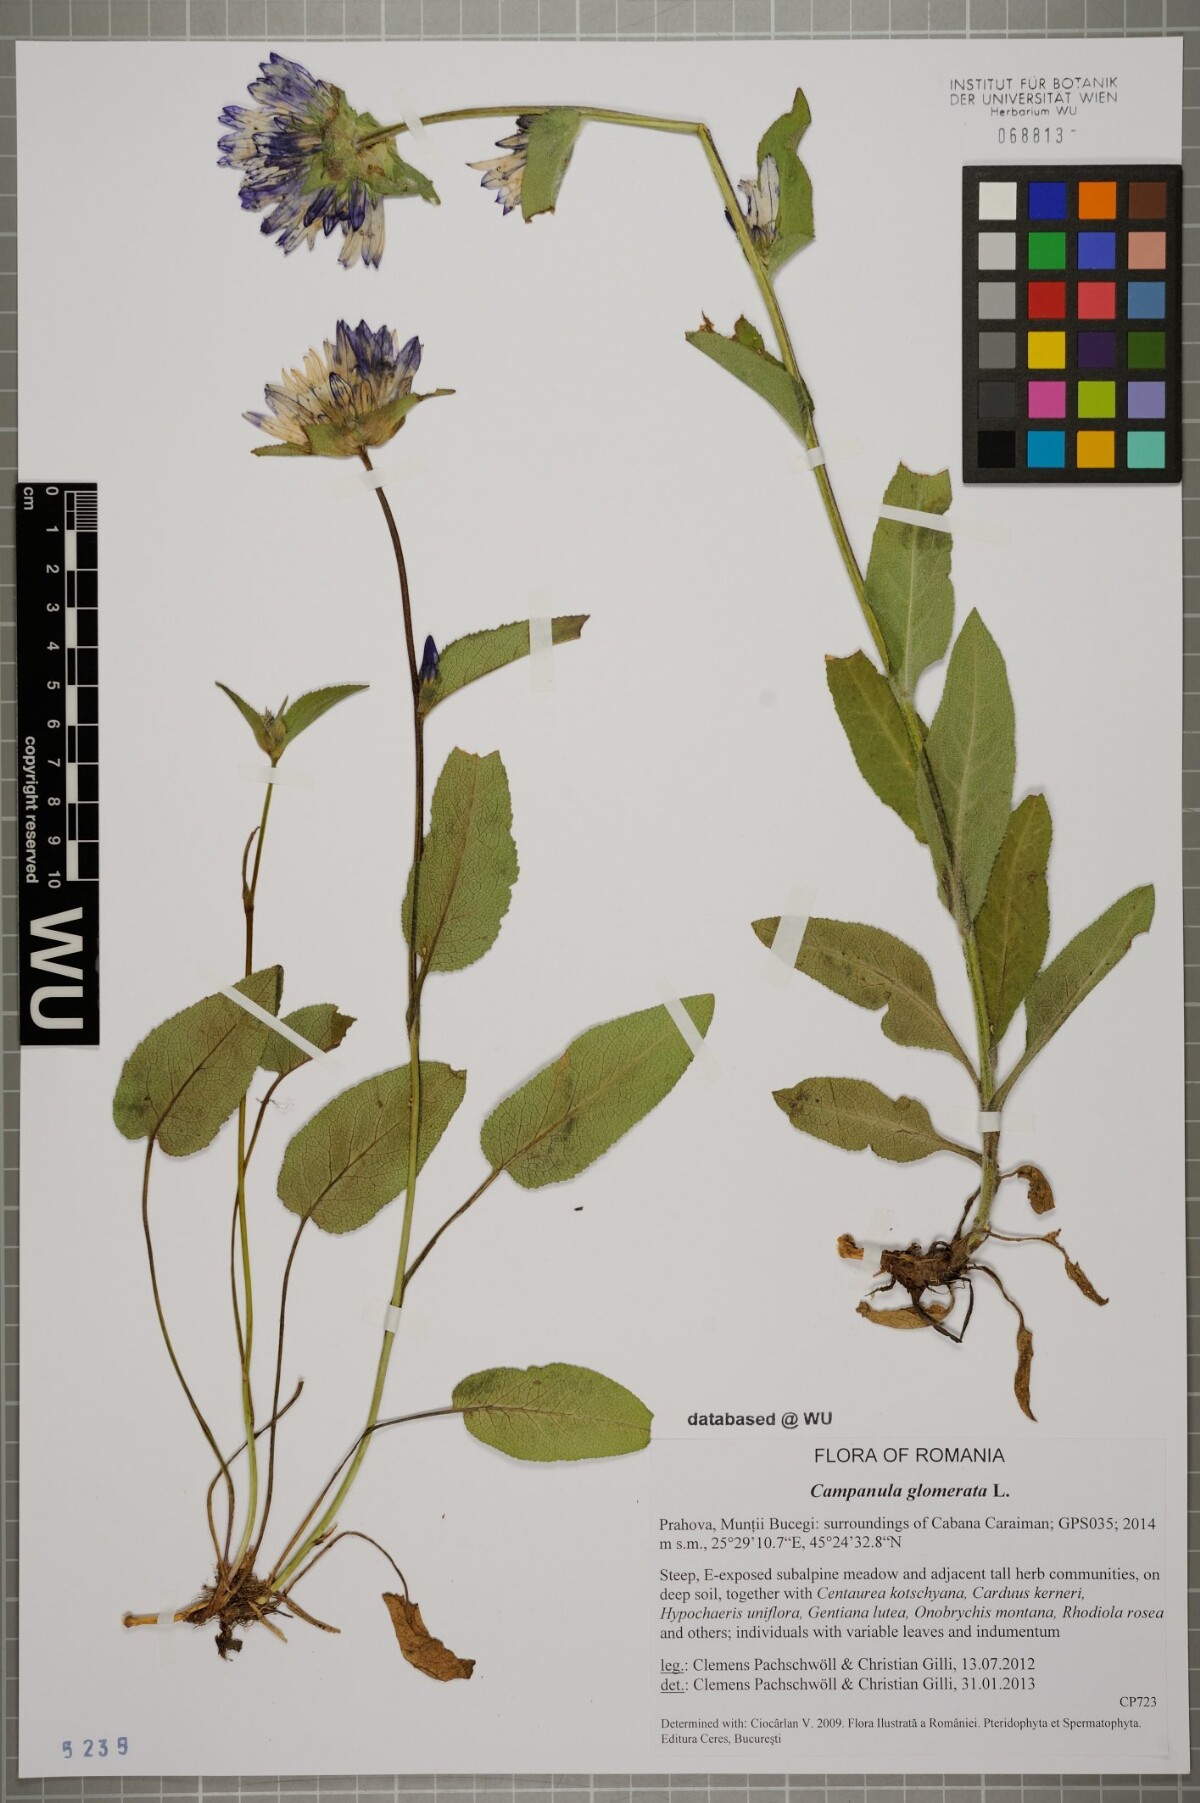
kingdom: Plantae
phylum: Tracheophyta
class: Magnoliopsida
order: Asterales
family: Campanulaceae
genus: Campanula
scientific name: Campanula glomerata
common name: Clustered bellflower
